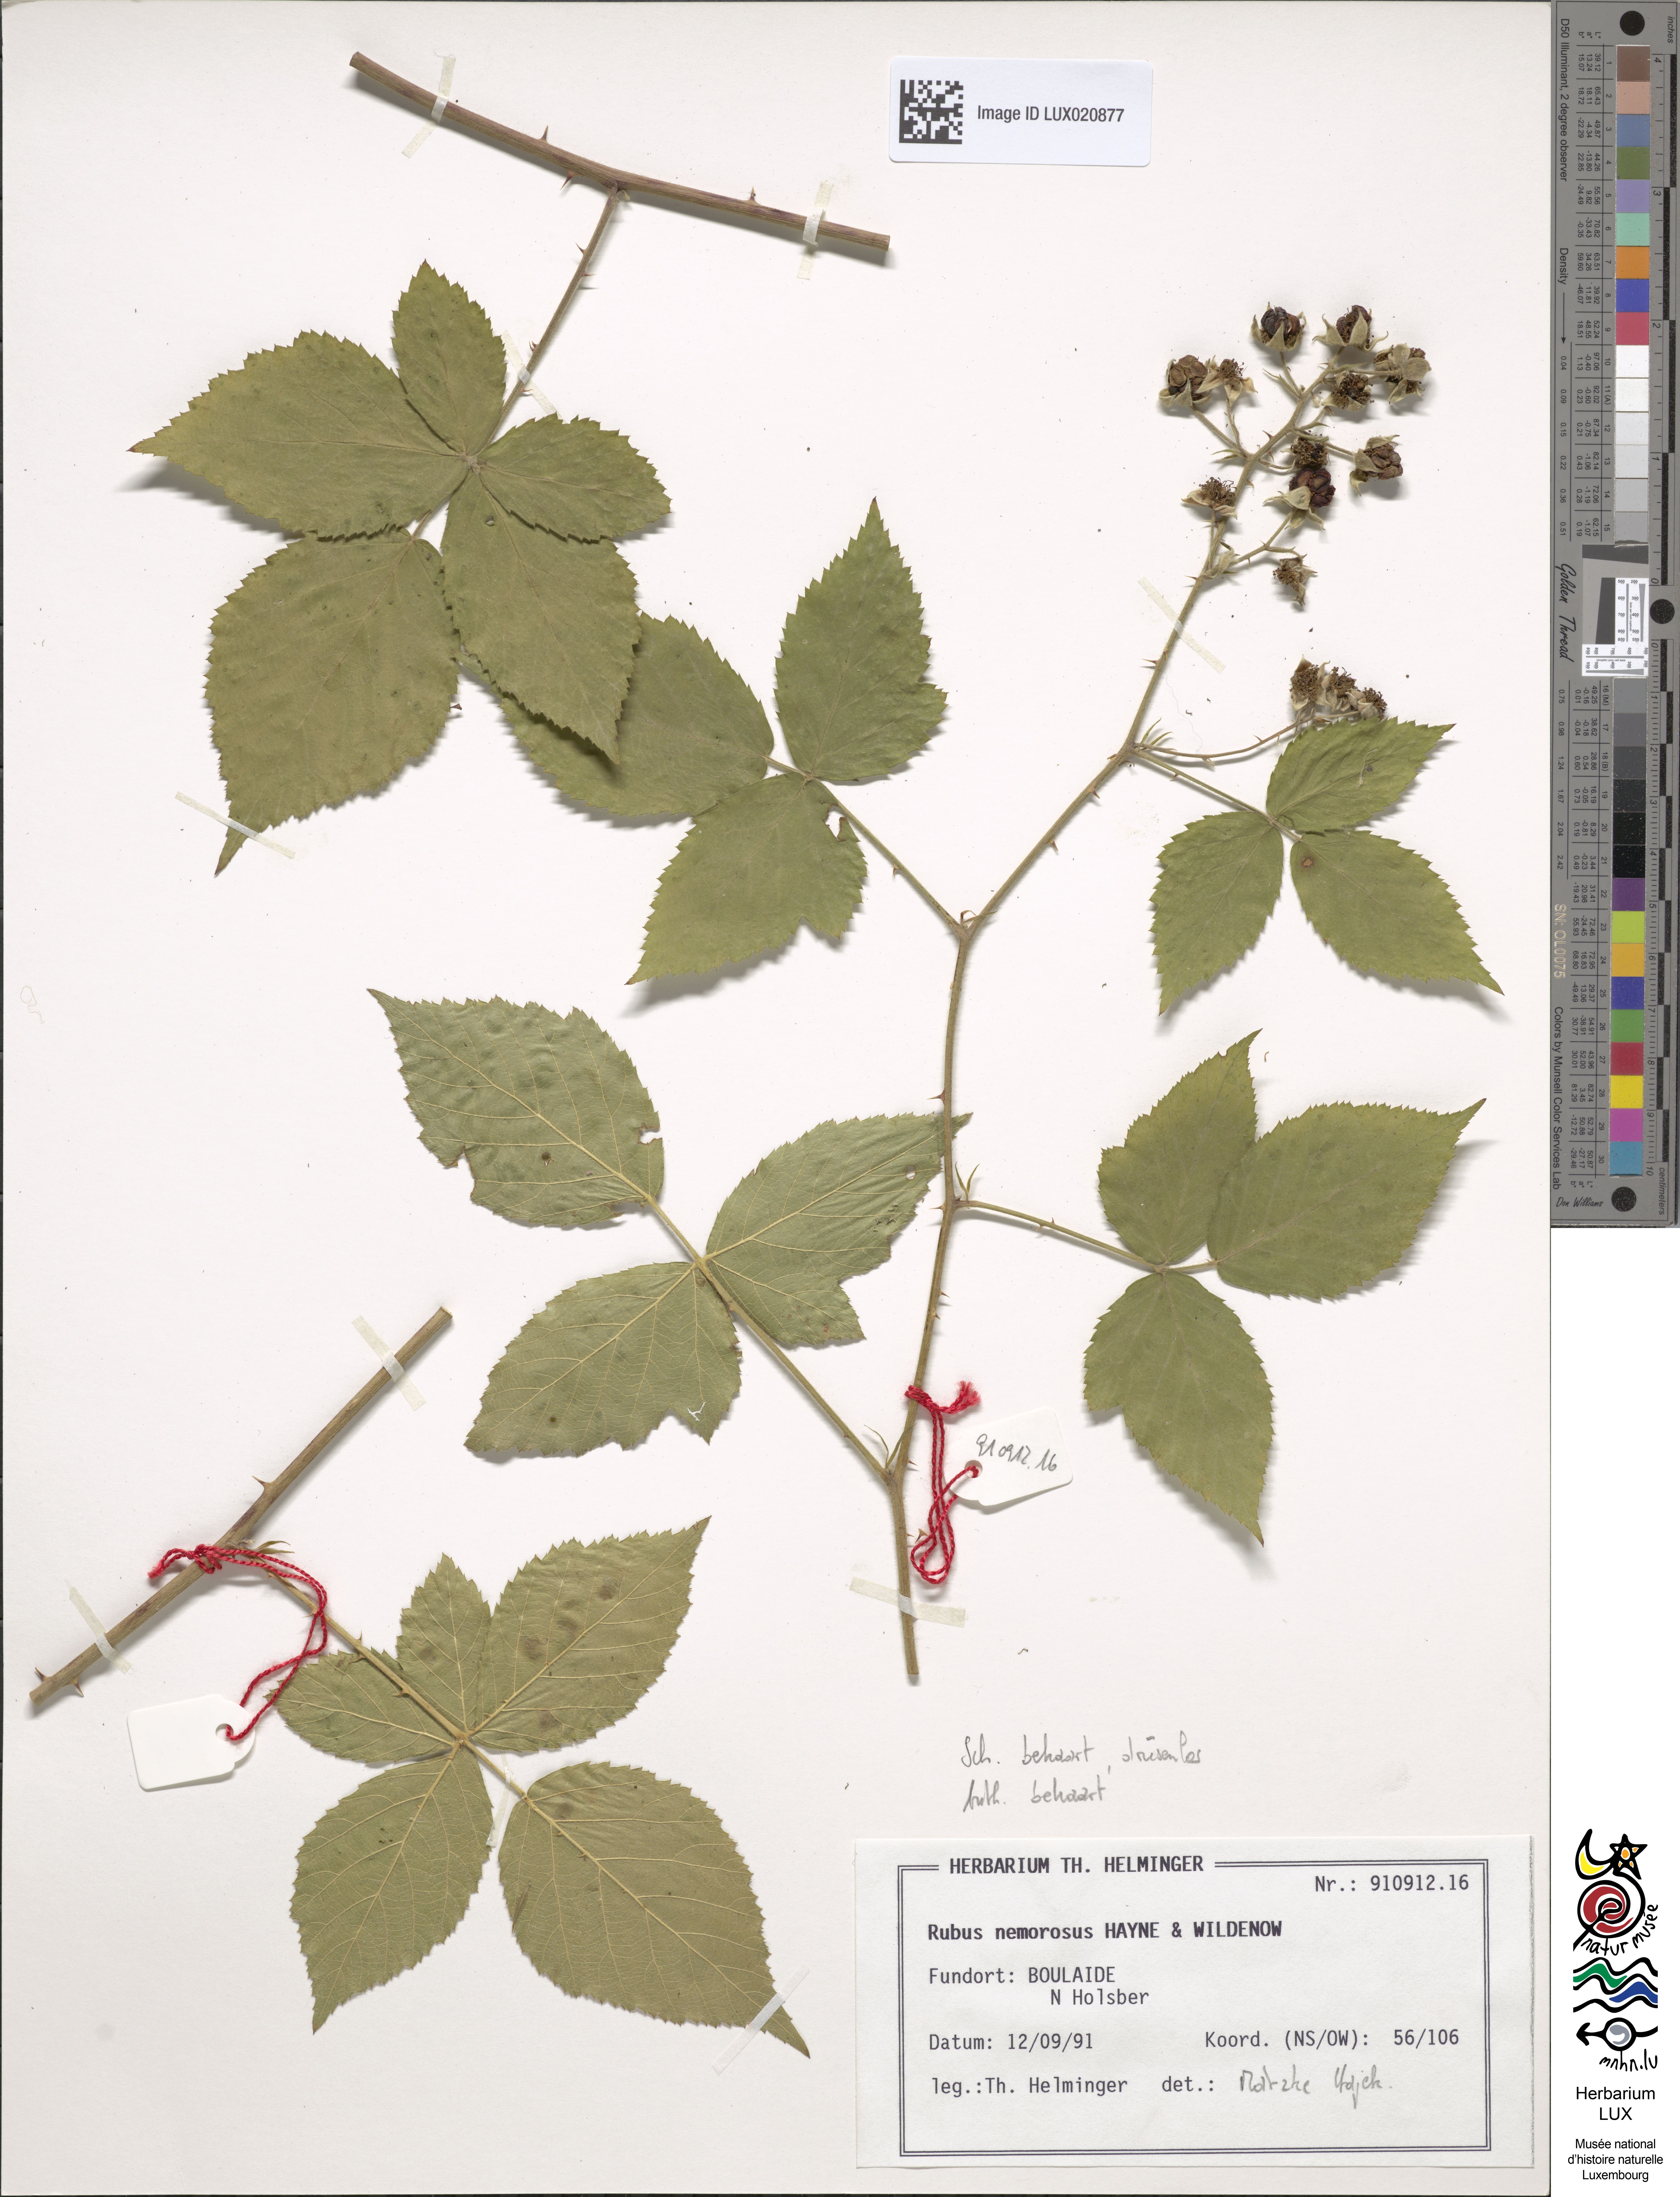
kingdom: Plantae
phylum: Tracheophyta
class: Magnoliopsida
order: Rosales
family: Rosaceae
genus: Rubus
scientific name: Rubus nemorosus
